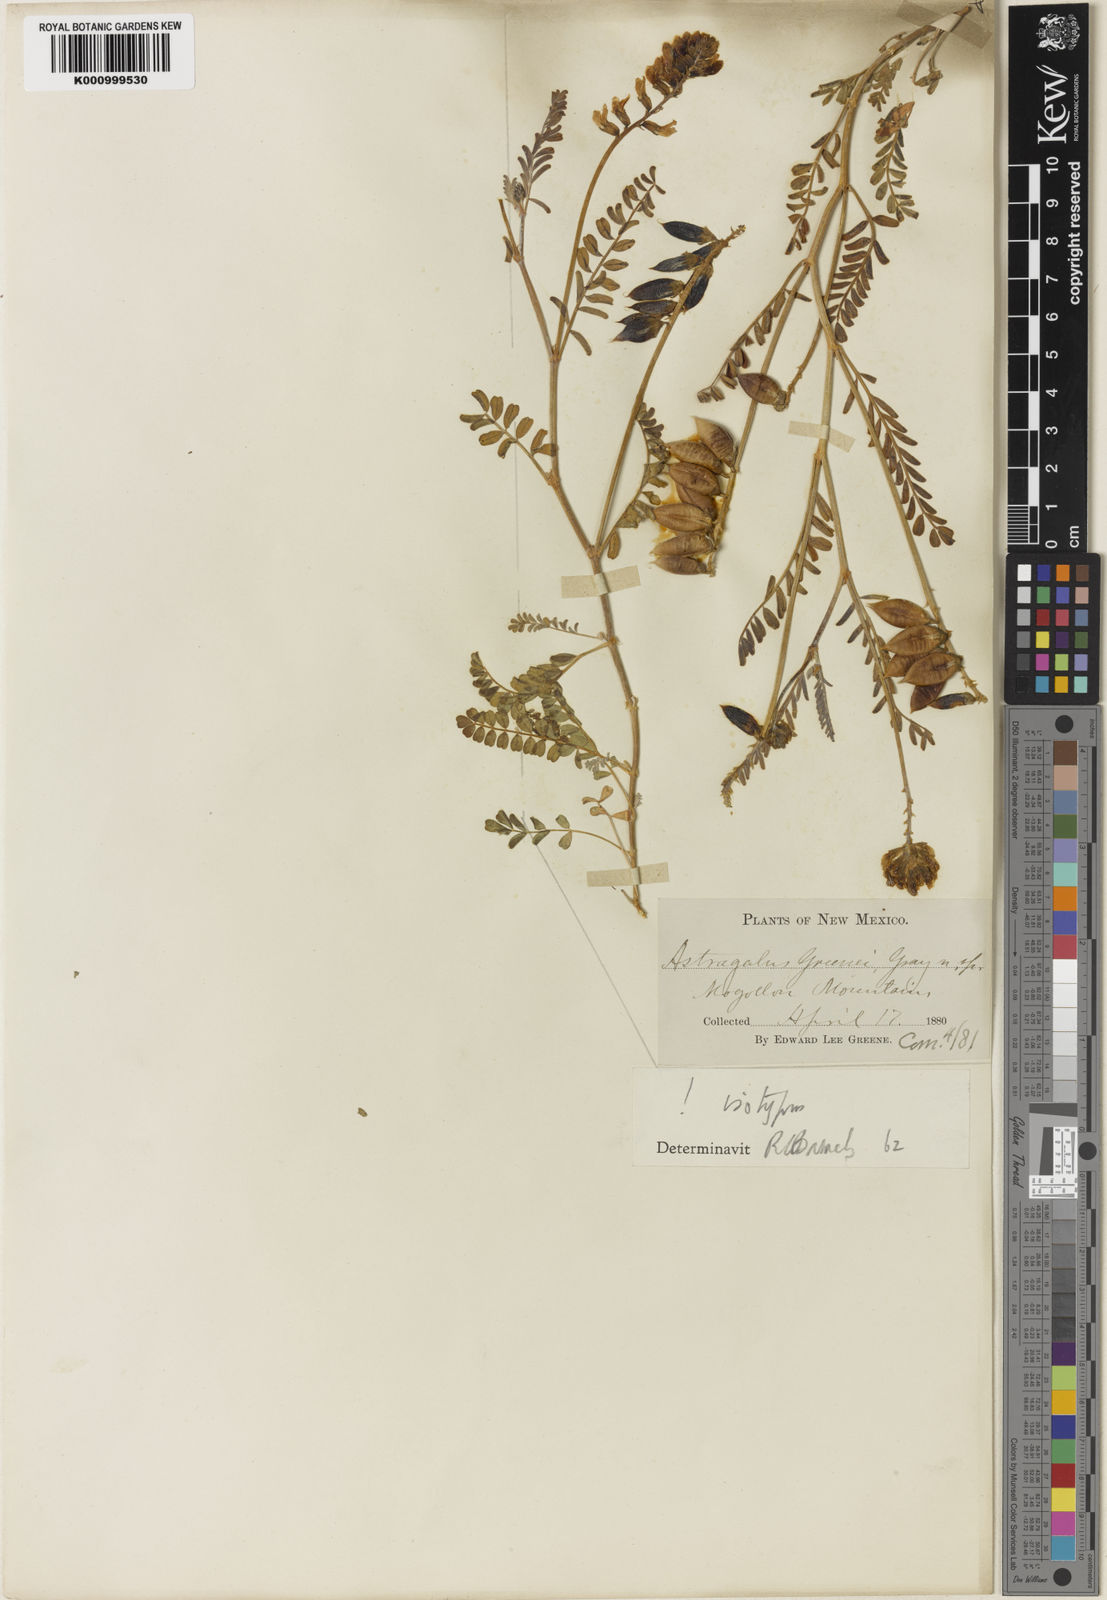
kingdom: Plantae
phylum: Tracheophyta
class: Magnoliopsida
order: Fabales
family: Fabaceae
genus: Astragalus
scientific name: Astragalus flexuosus
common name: Pliant milk-vetch
